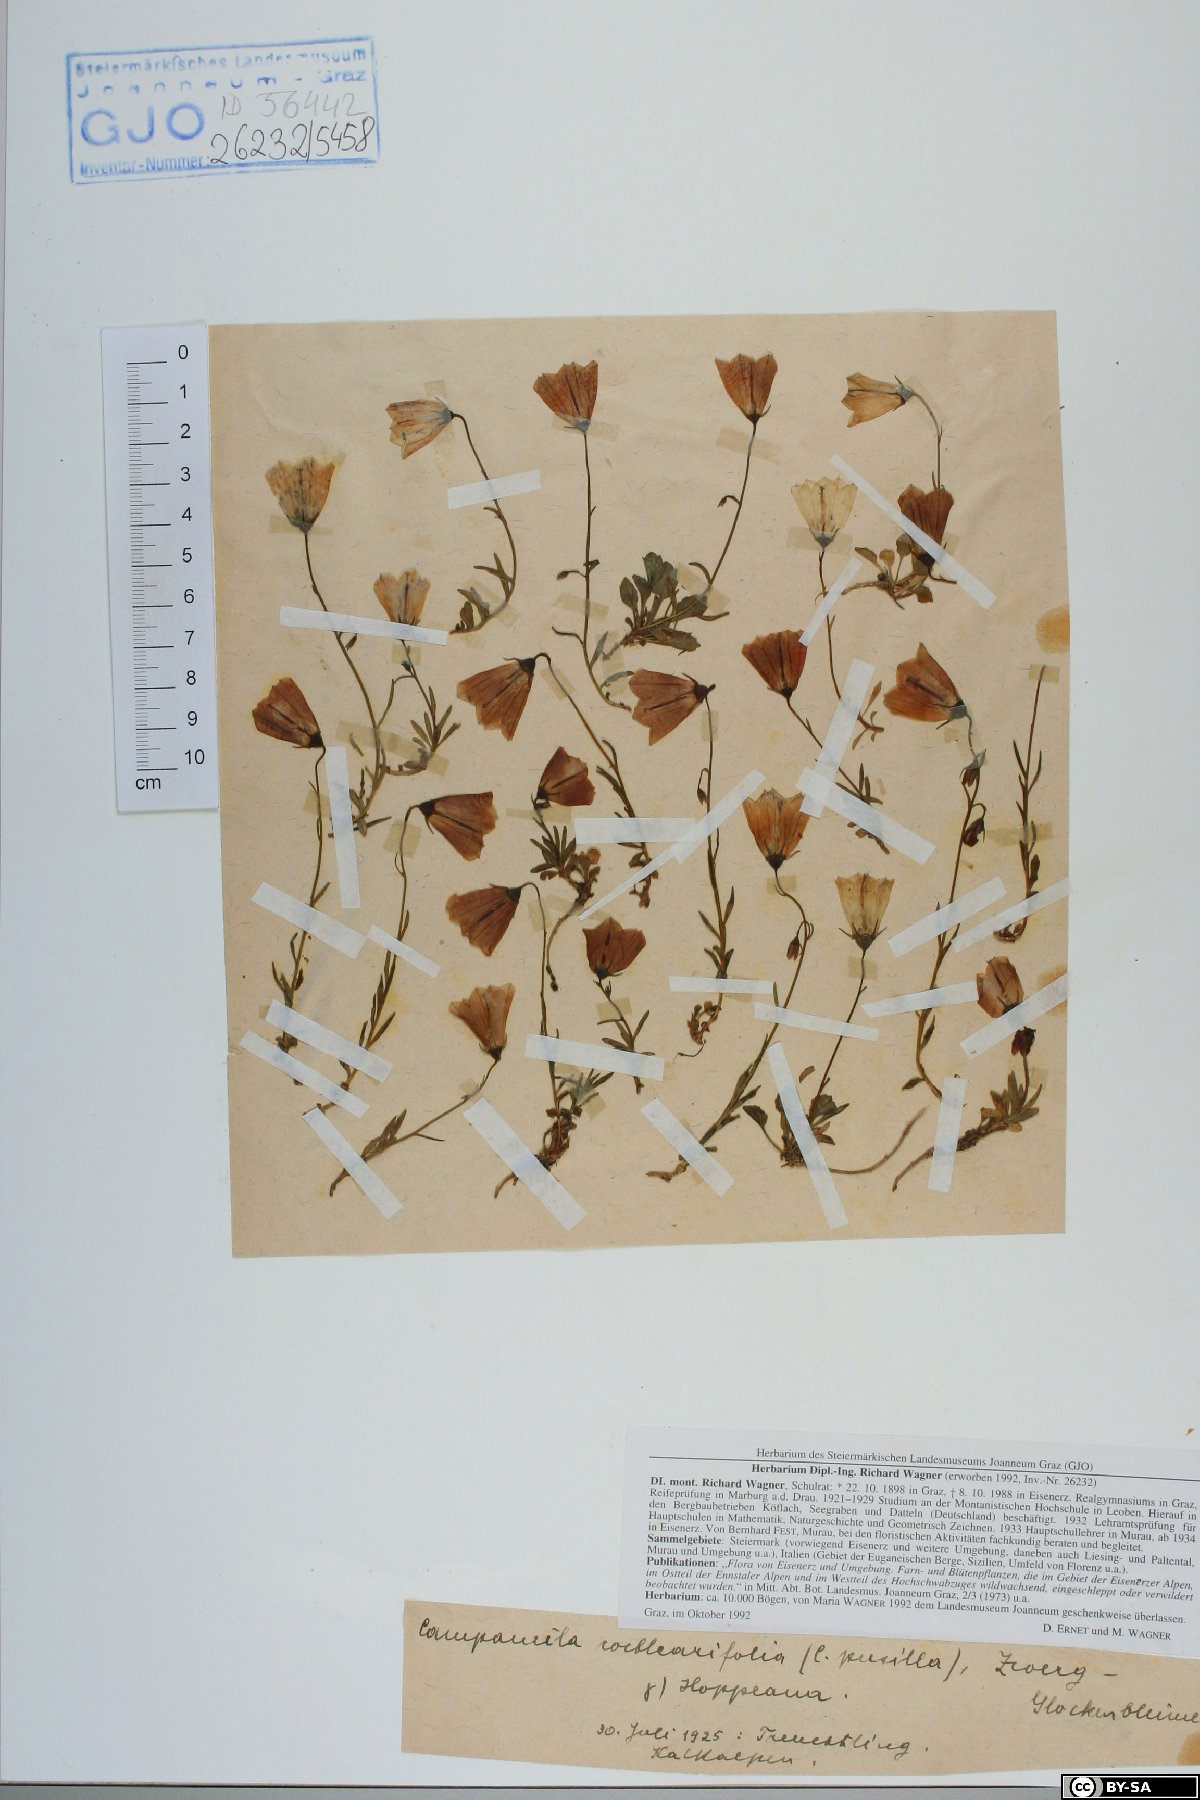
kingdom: Plantae
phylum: Tracheophyta
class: Magnoliopsida
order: Asterales
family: Campanulaceae
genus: Campanula
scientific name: Campanula cochleariifolia
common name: Fairies'-thimbles
